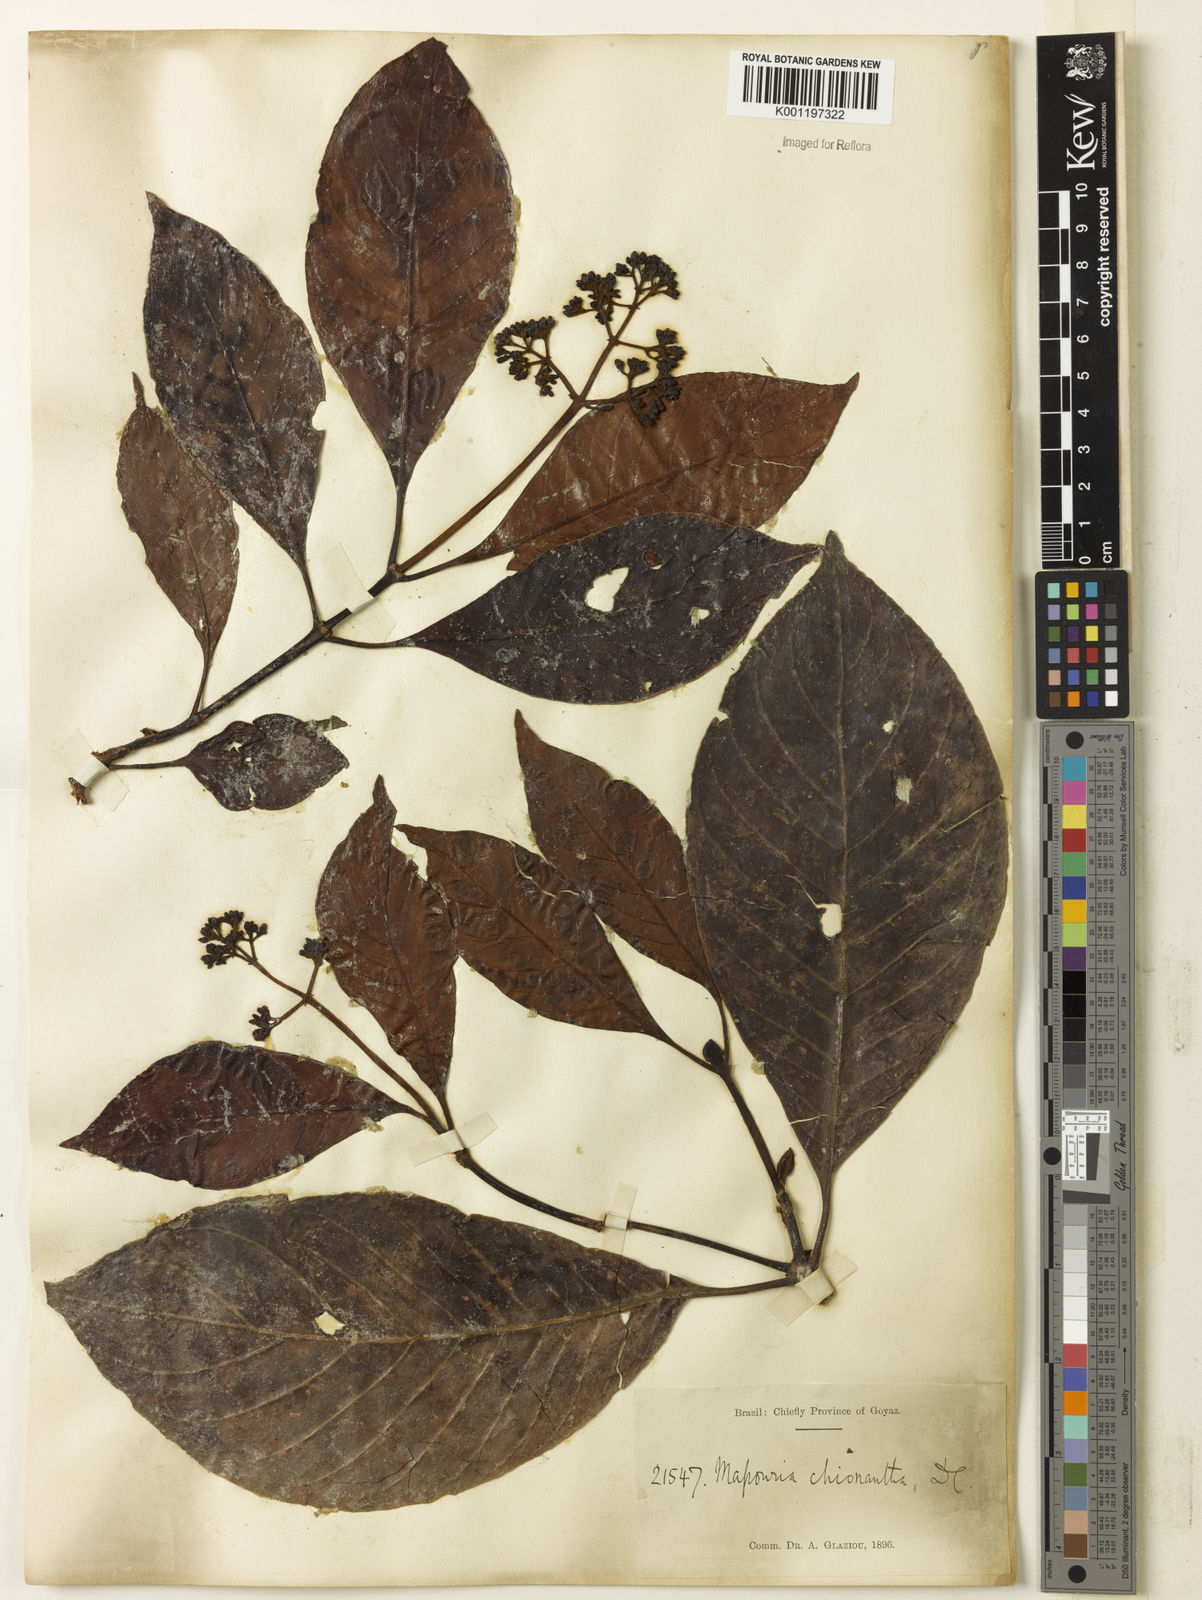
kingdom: Plantae
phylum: Tracheophyta
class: Magnoliopsida
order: Gentianales
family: Rubiaceae
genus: Psychotria
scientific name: Psychotria pedunculosa
